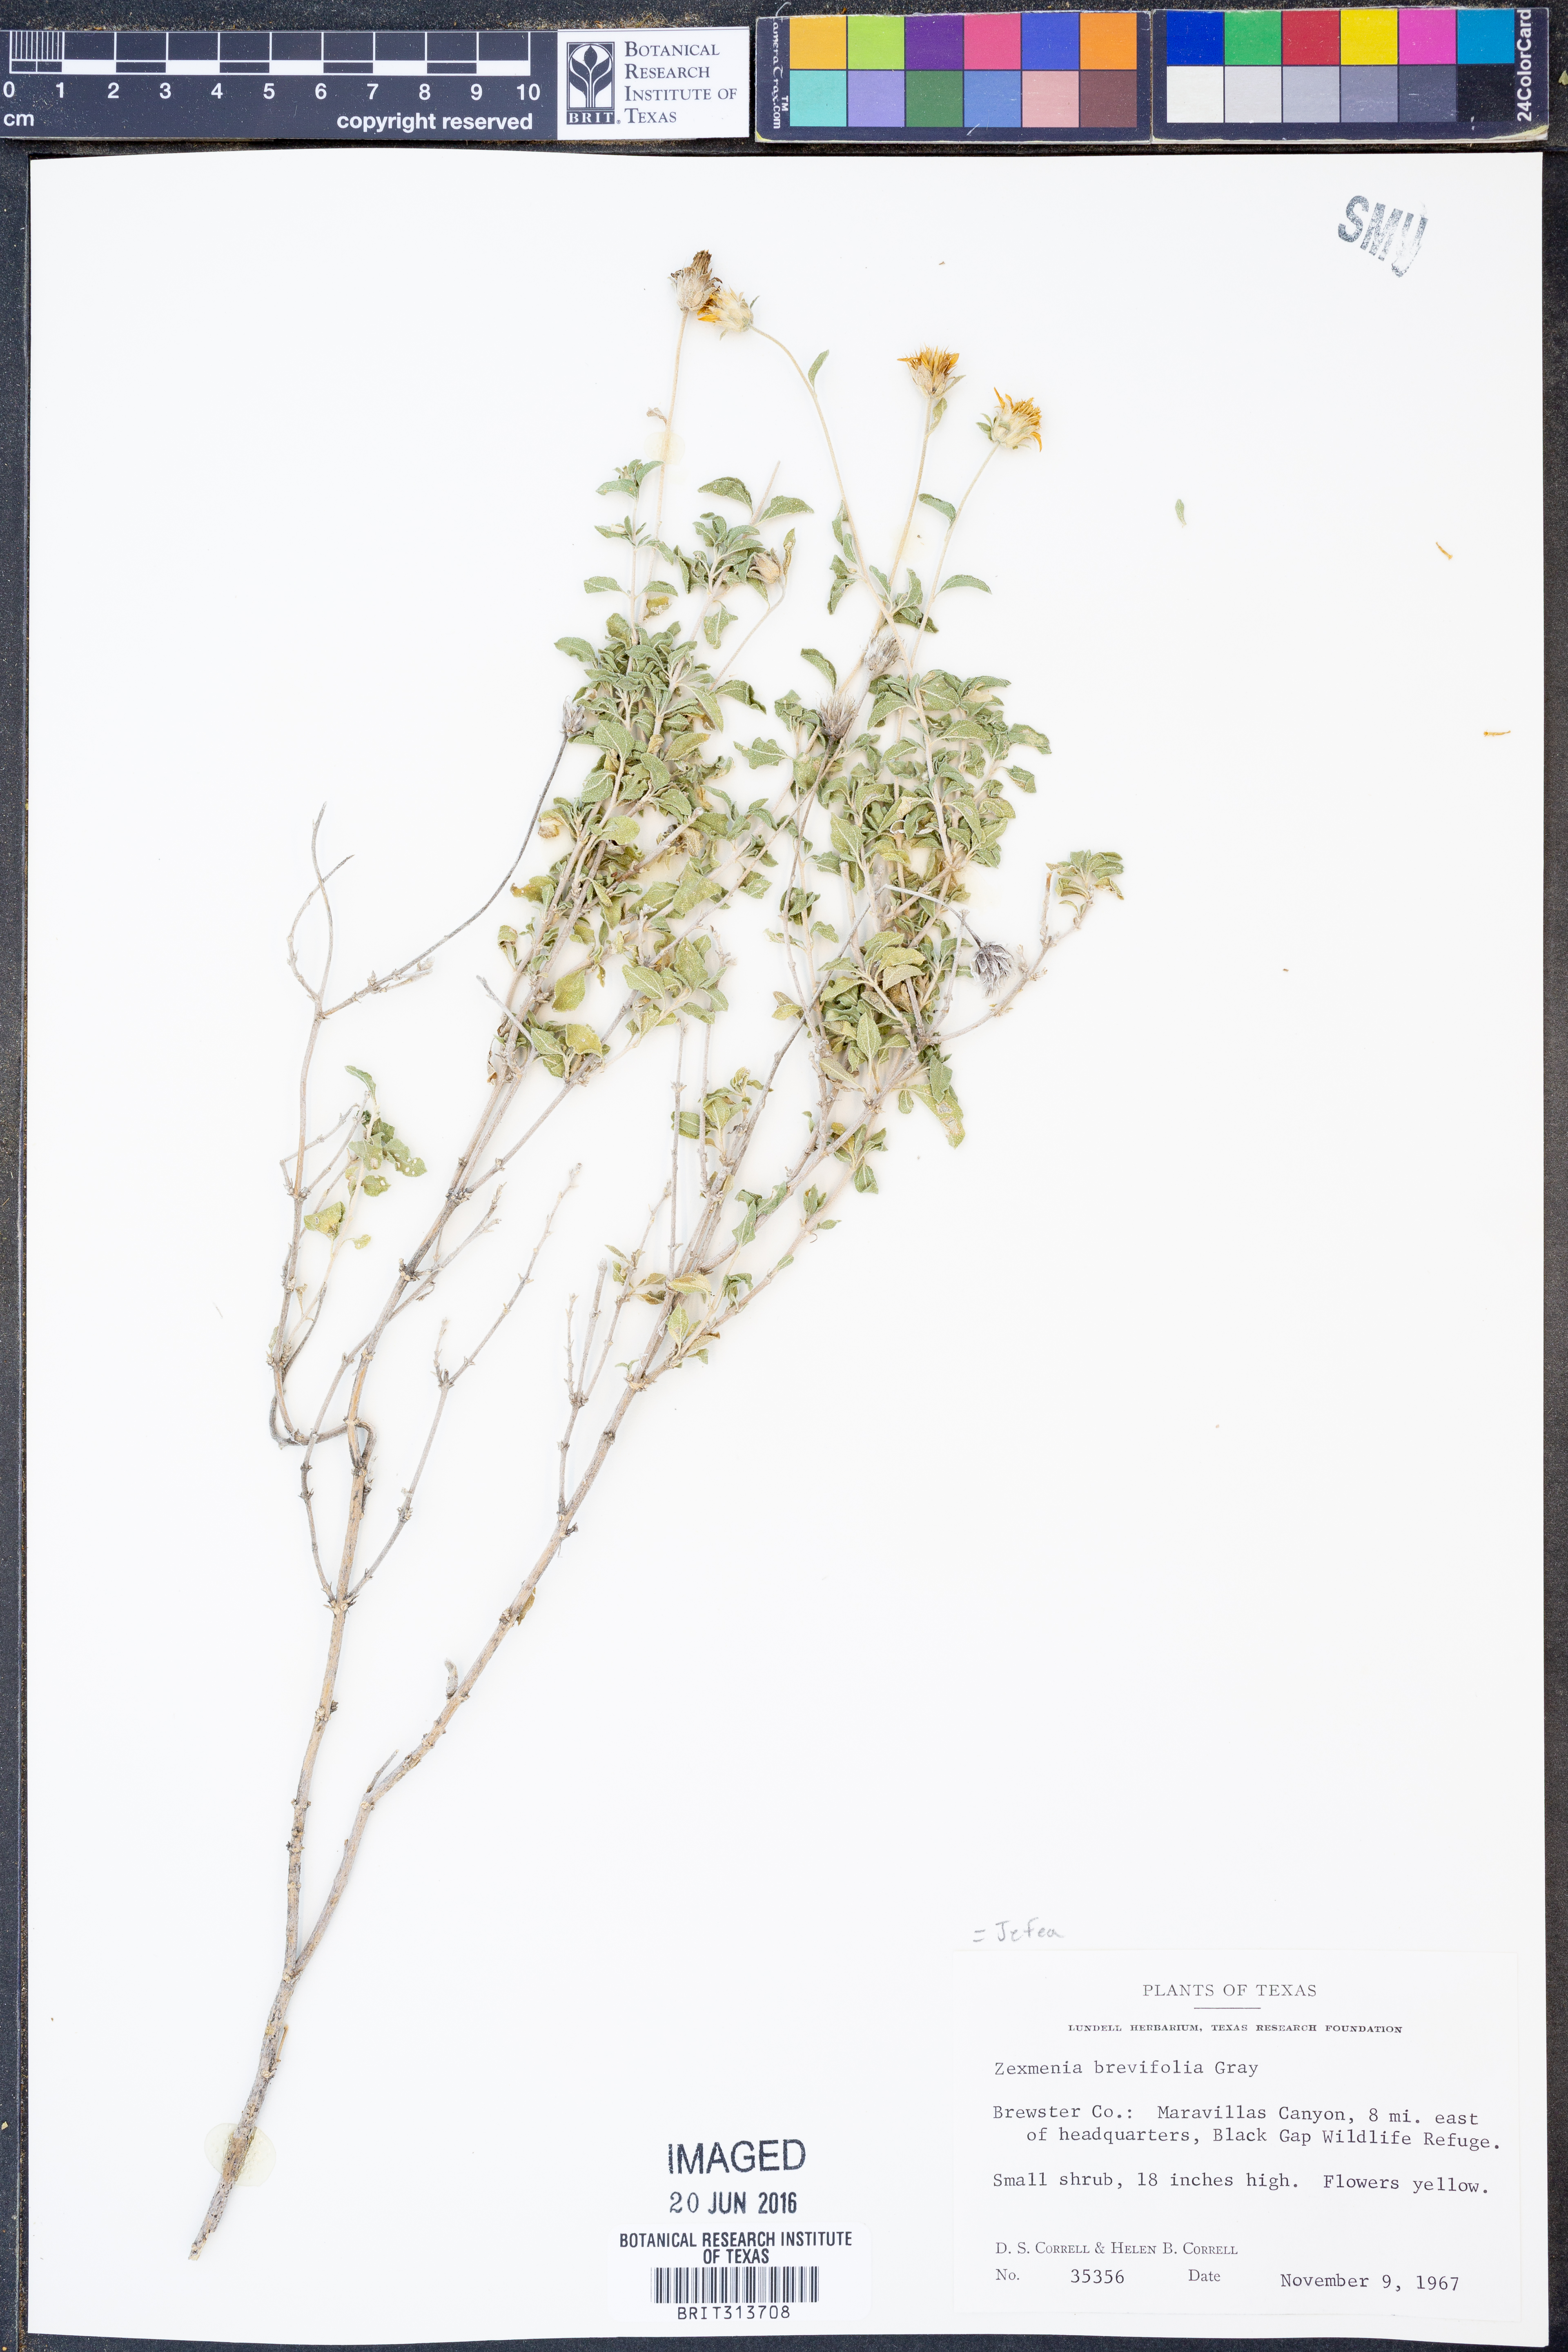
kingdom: Plantae
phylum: Tracheophyta
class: Magnoliopsida
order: Asterales
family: Asteraceae
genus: Jefea
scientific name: Jefea brevifolia
